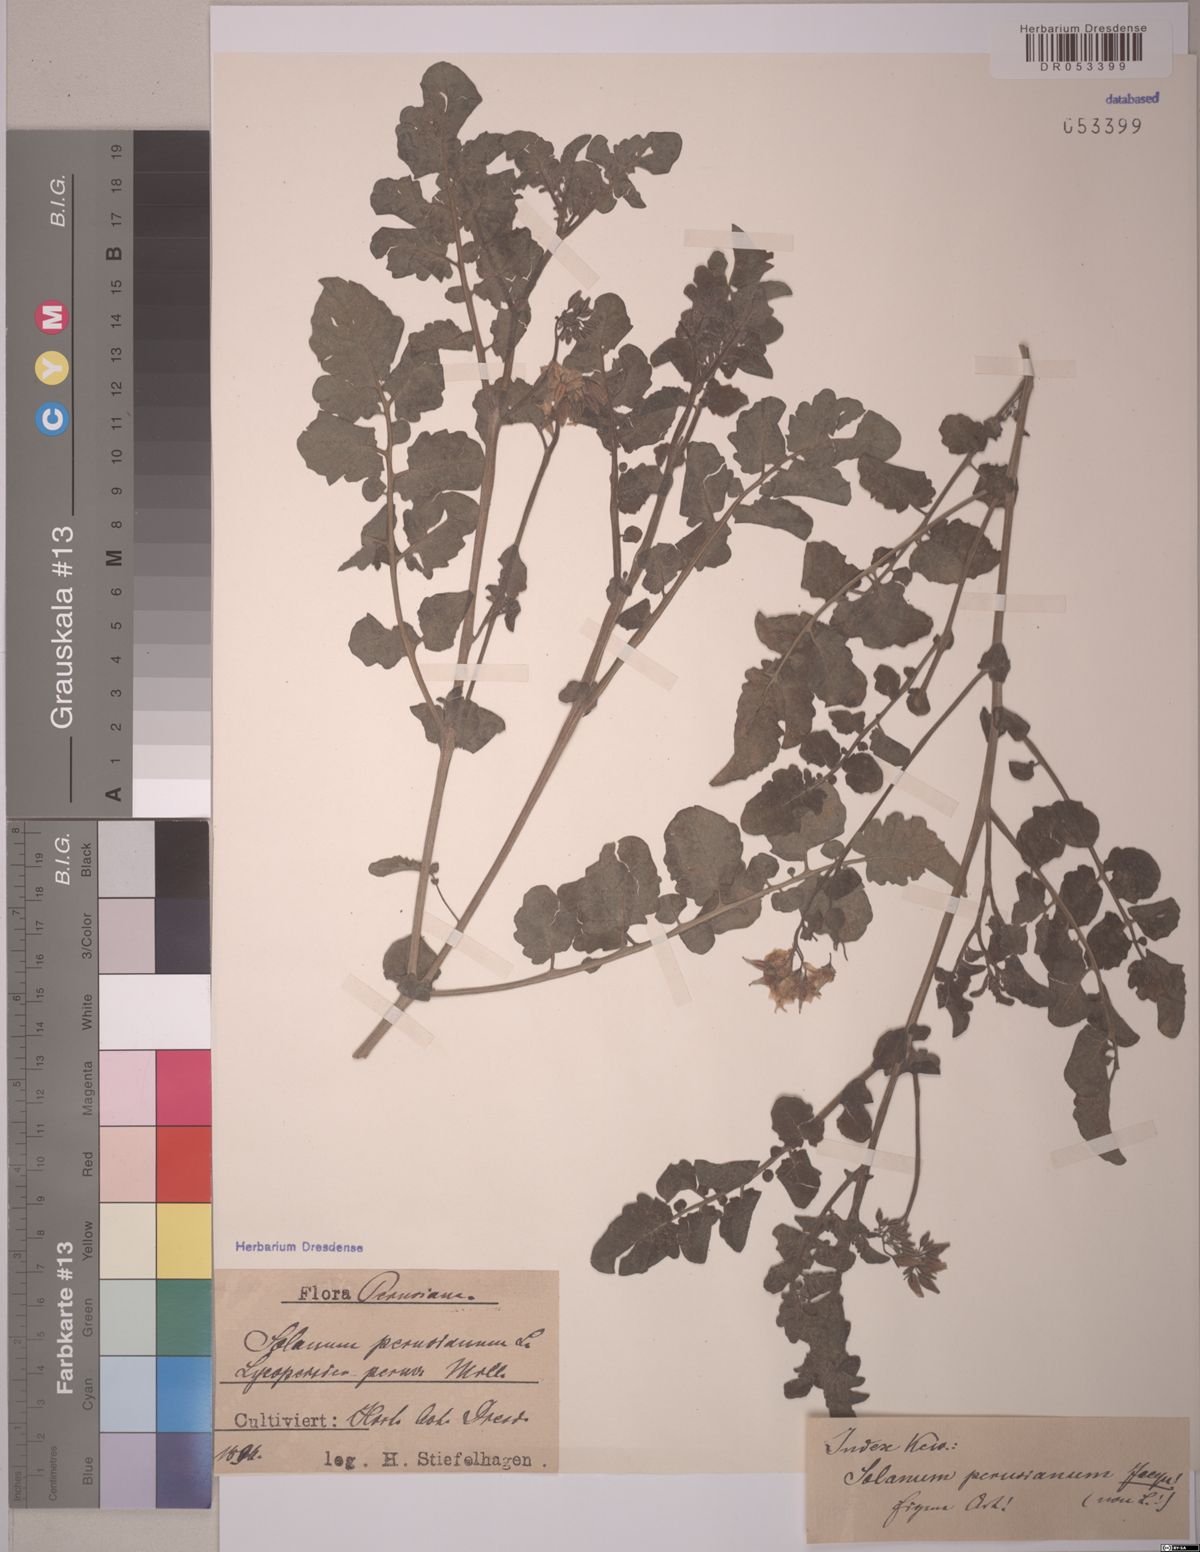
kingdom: Plantae
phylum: Tracheophyta
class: Magnoliopsida
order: Solanales
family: Solanaceae
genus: Solanum
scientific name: Solanum peruvianum
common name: Peruvian nightshade
